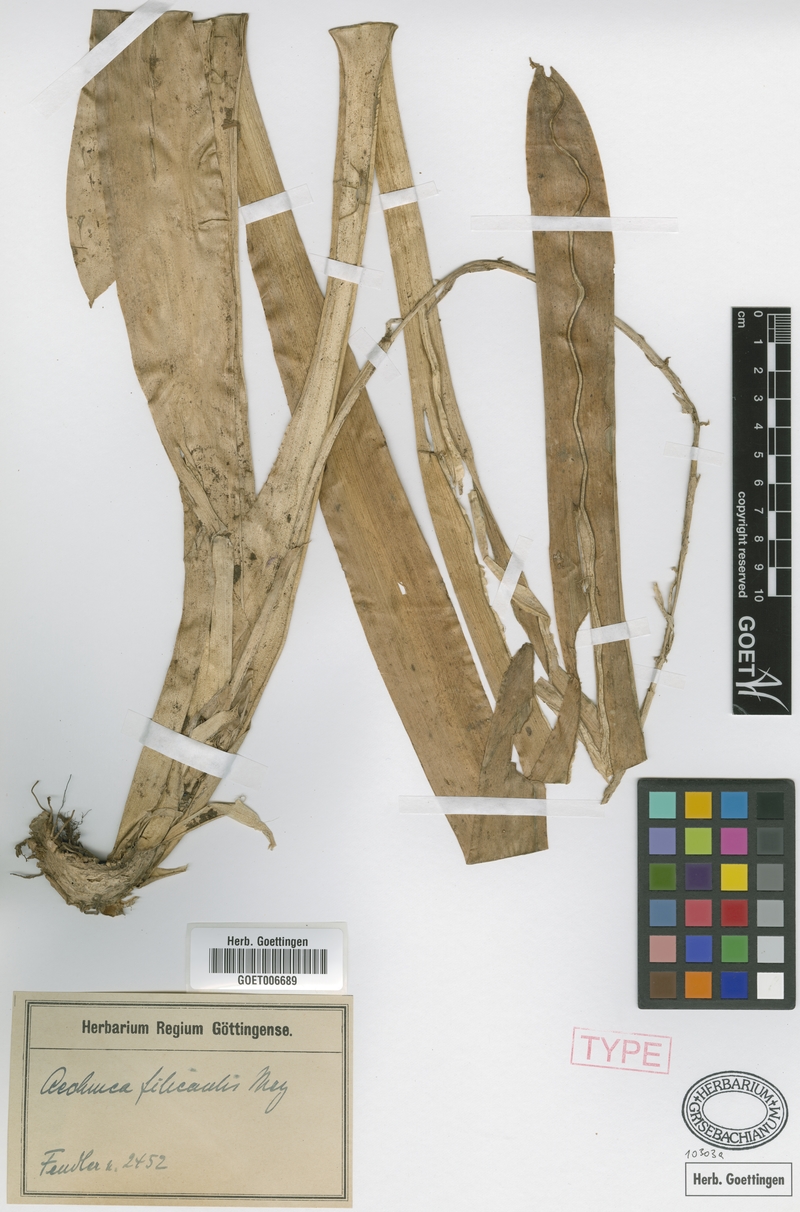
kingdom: Plantae
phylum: Tracheophyta
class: Liliopsida
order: Poales
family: Bromeliaceae
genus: Aechmea
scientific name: Aechmea filicaulis
